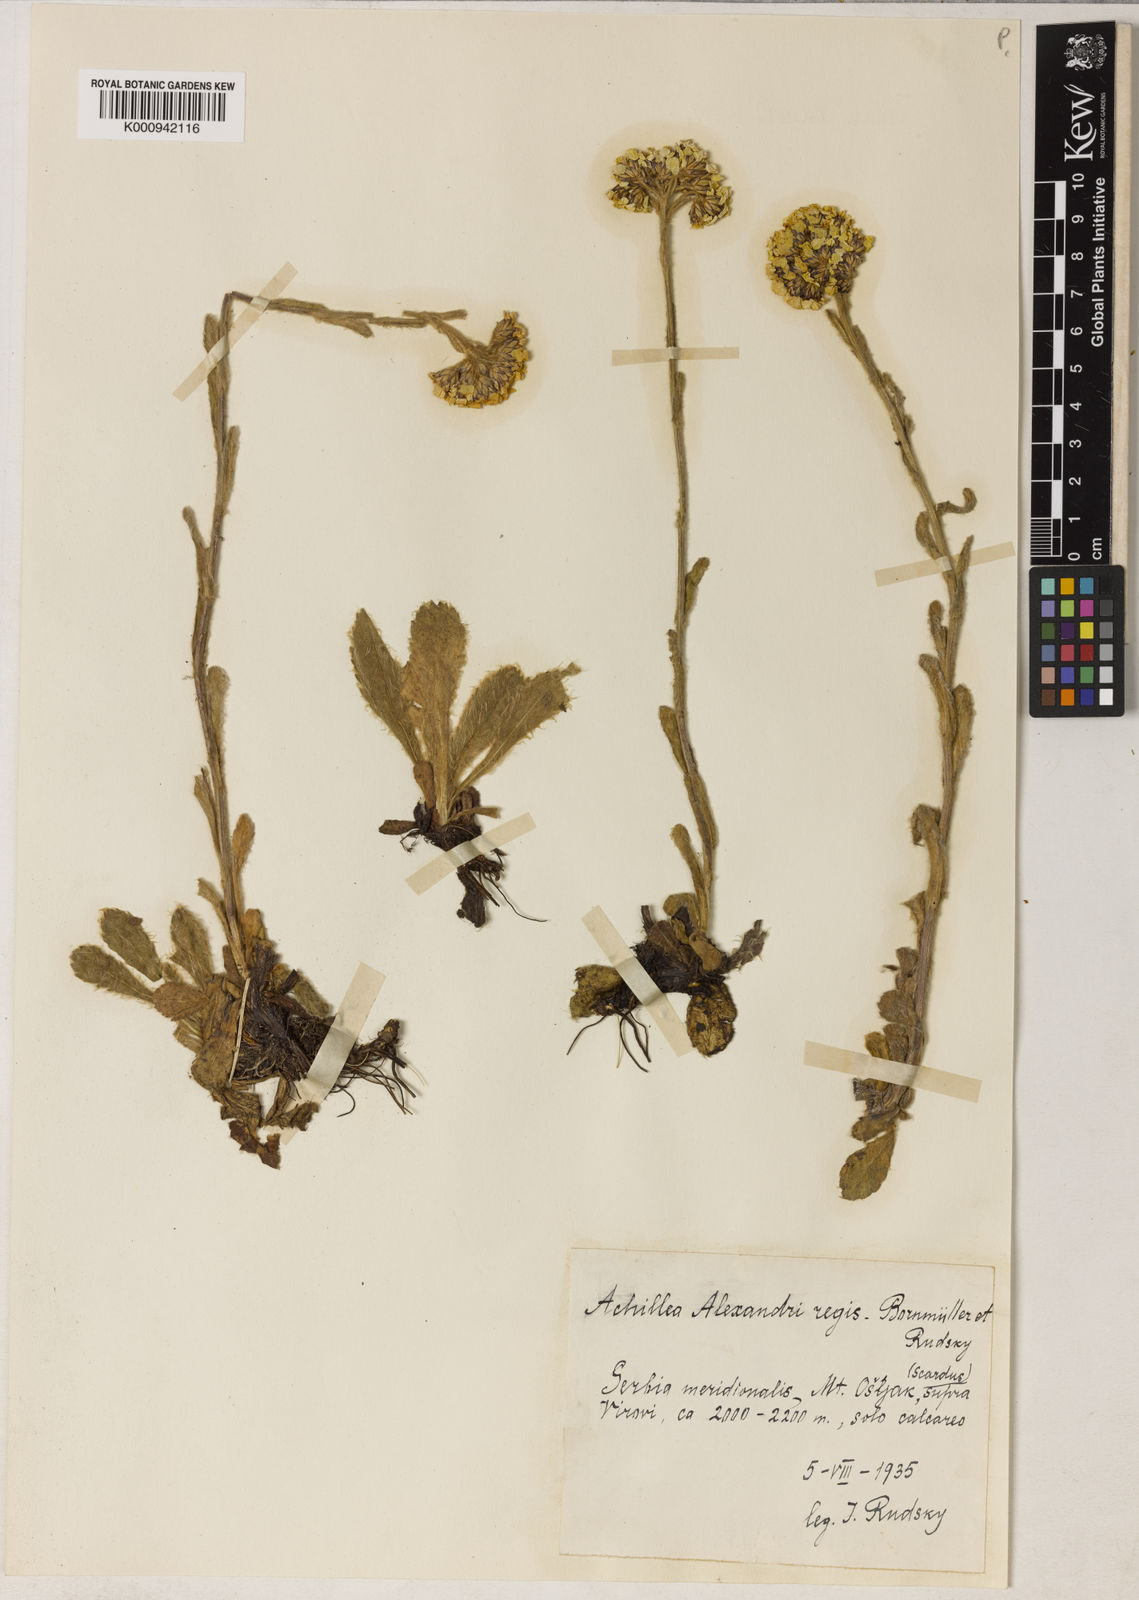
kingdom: Plantae
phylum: Tracheophyta
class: Magnoliopsida
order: Asterales
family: Asteraceae
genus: Achillea
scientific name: Achillea
